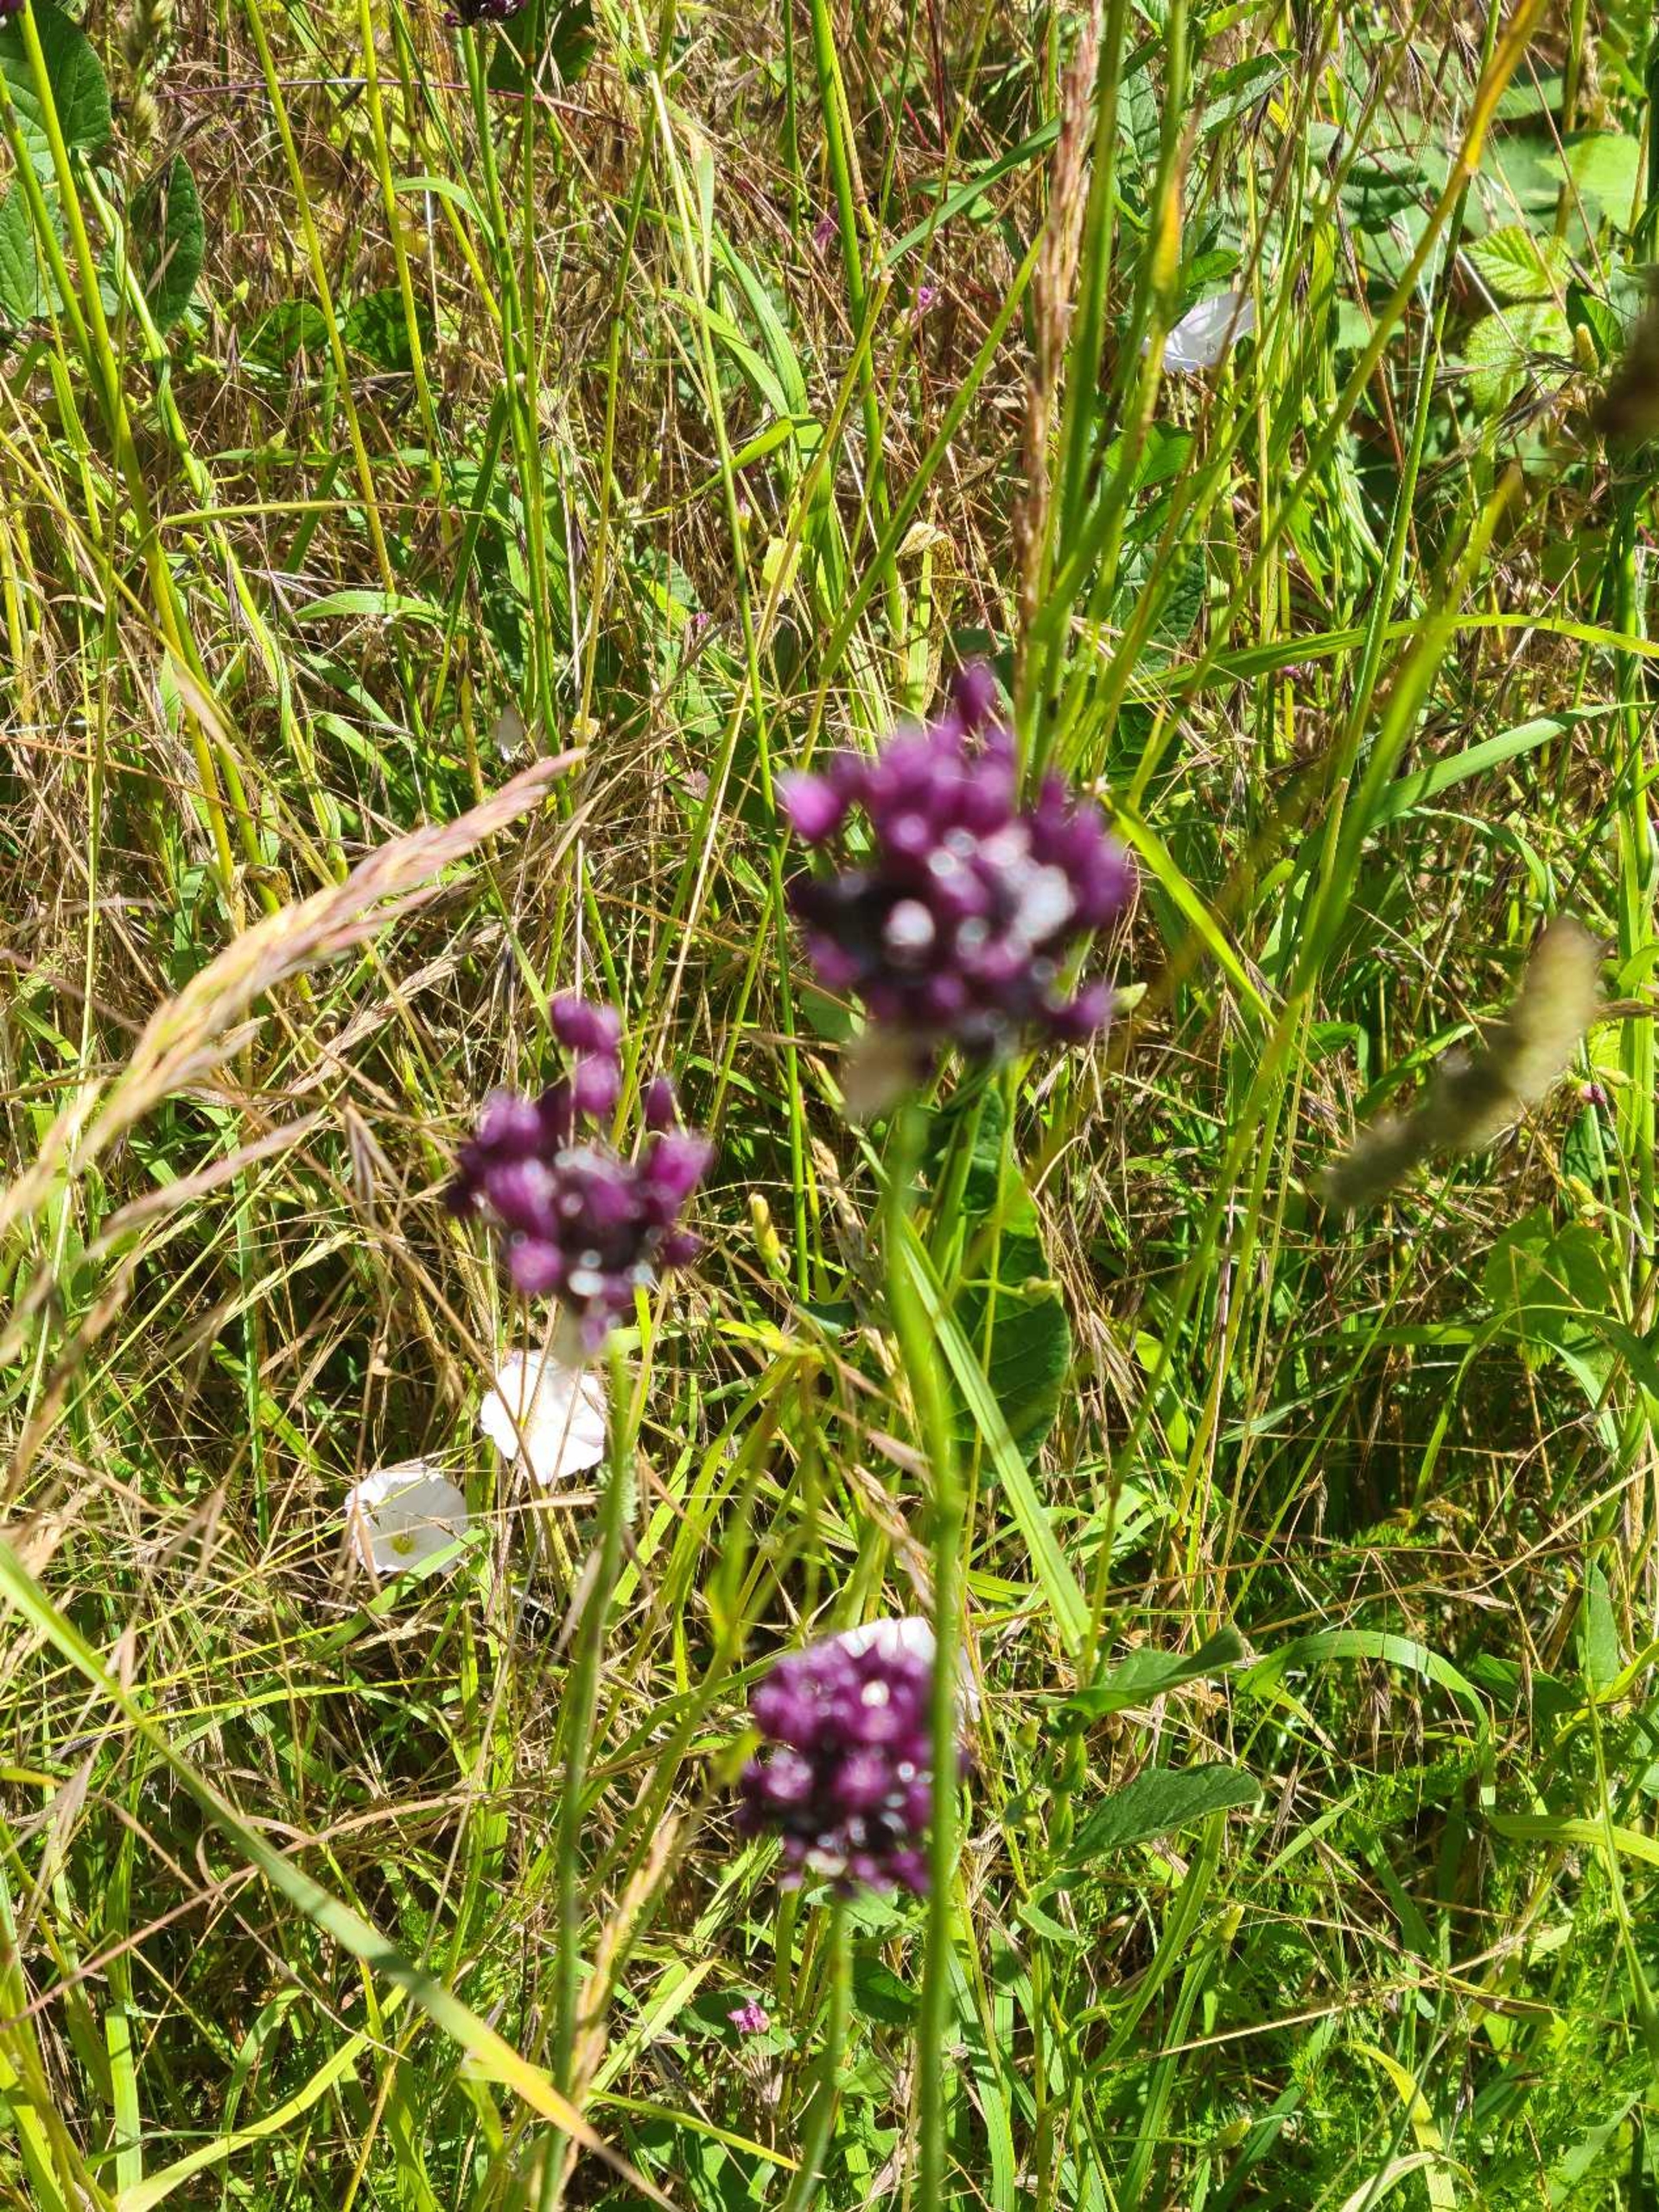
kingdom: Plantae
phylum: Tracheophyta
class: Liliopsida
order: Asparagales
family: Amaryllidaceae
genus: Allium
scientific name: Allium scorodoprasum
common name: Skov-løg
